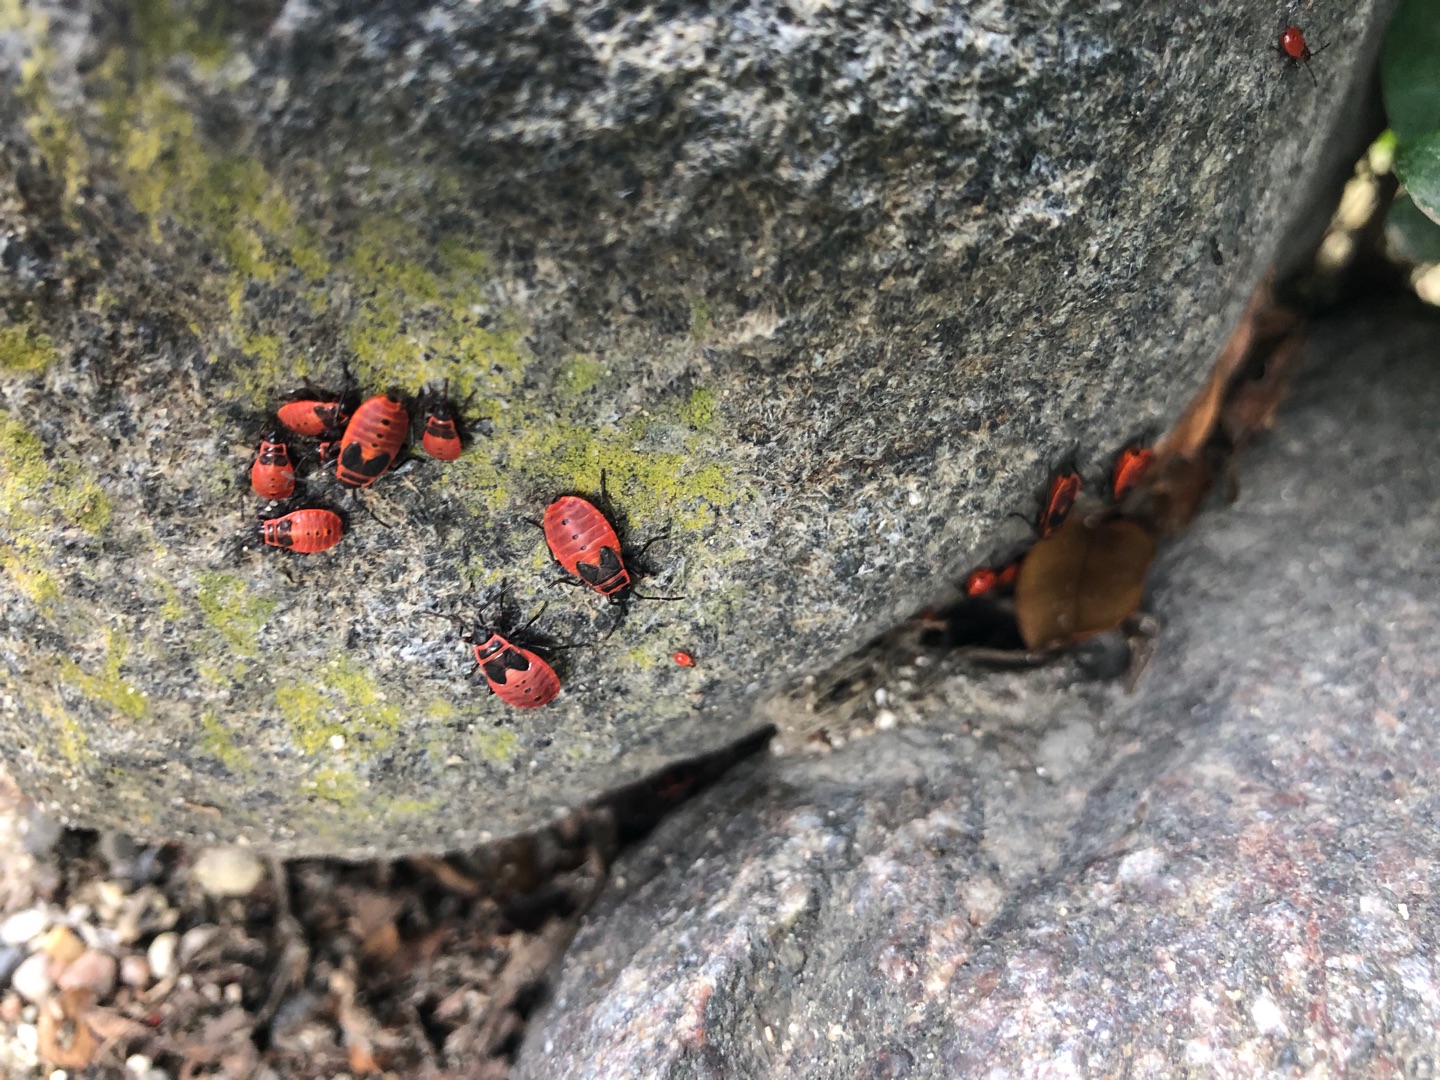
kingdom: Animalia
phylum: Arthropoda
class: Insecta
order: Hemiptera
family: Pyrrhocoridae
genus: Pyrrhocoris
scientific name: Pyrrhocoris apterus
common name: Ildtæge
